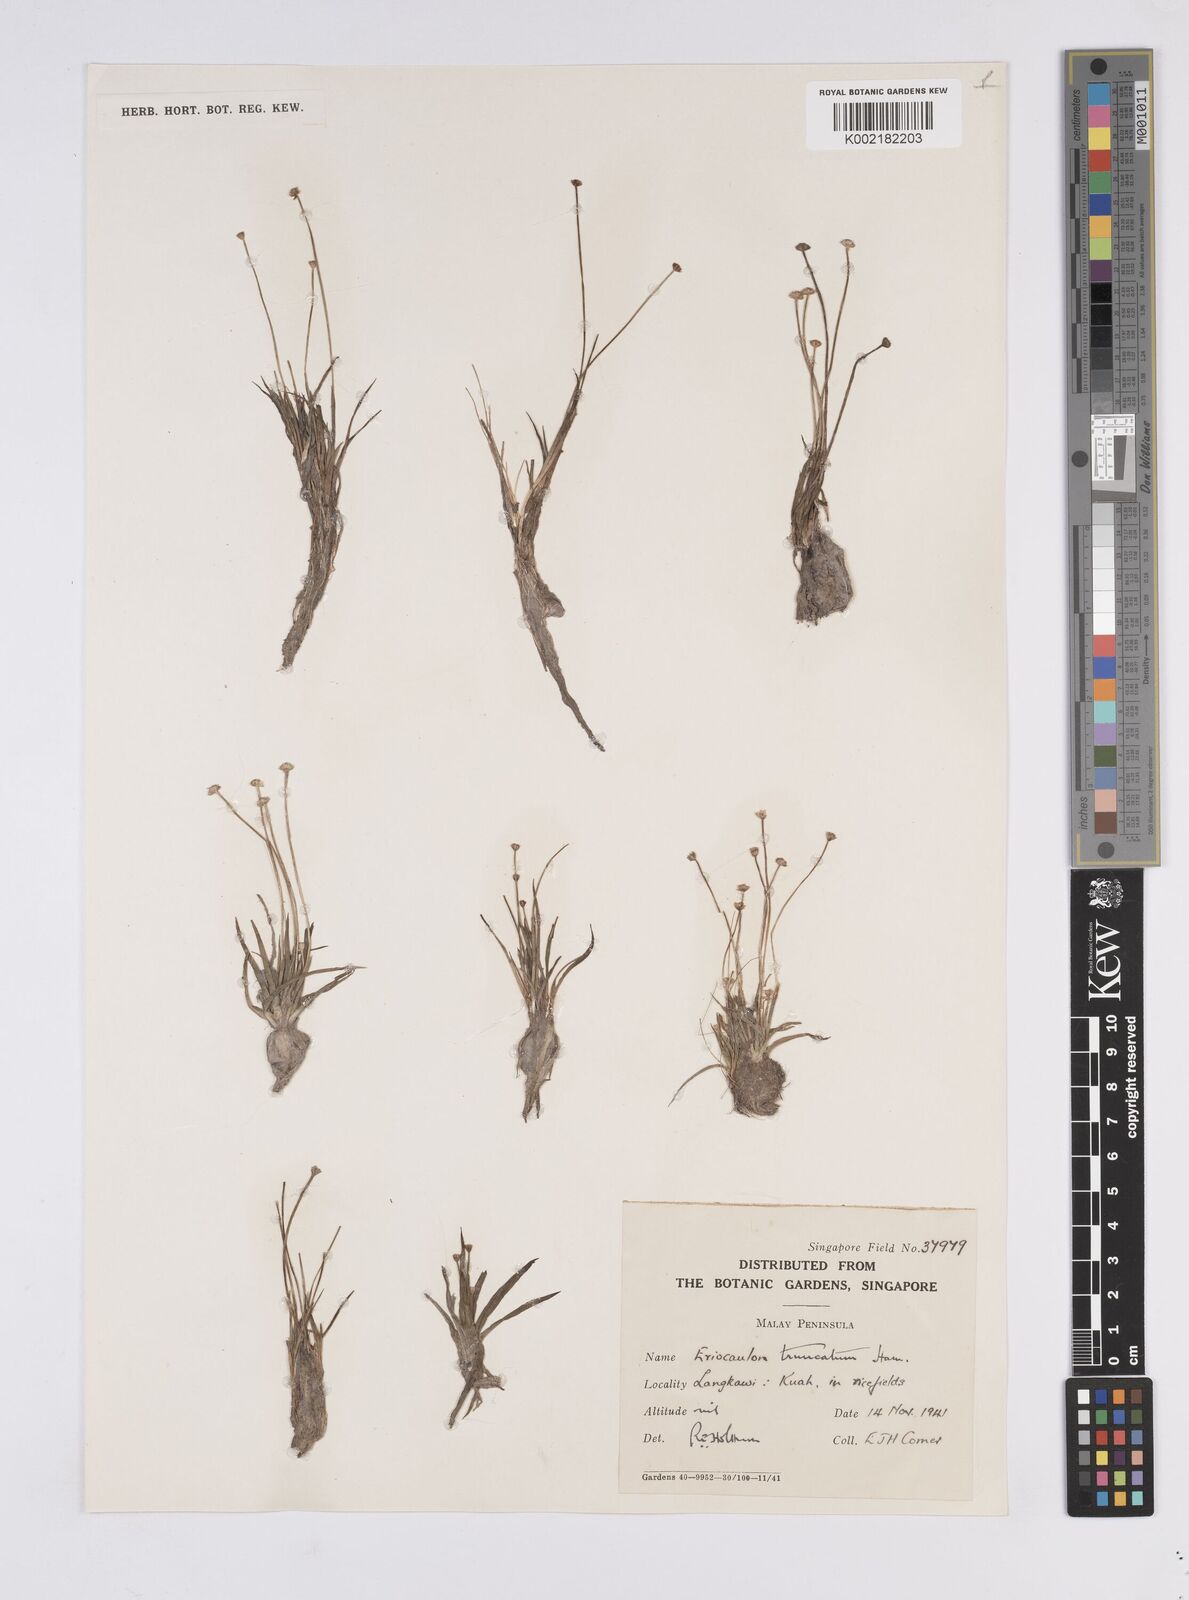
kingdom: Plantae
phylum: Tracheophyta
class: Liliopsida
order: Poales
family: Eriocaulaceae
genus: Eriocaulon
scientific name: Eriocaulon truncatum
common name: Short pipe-wort
